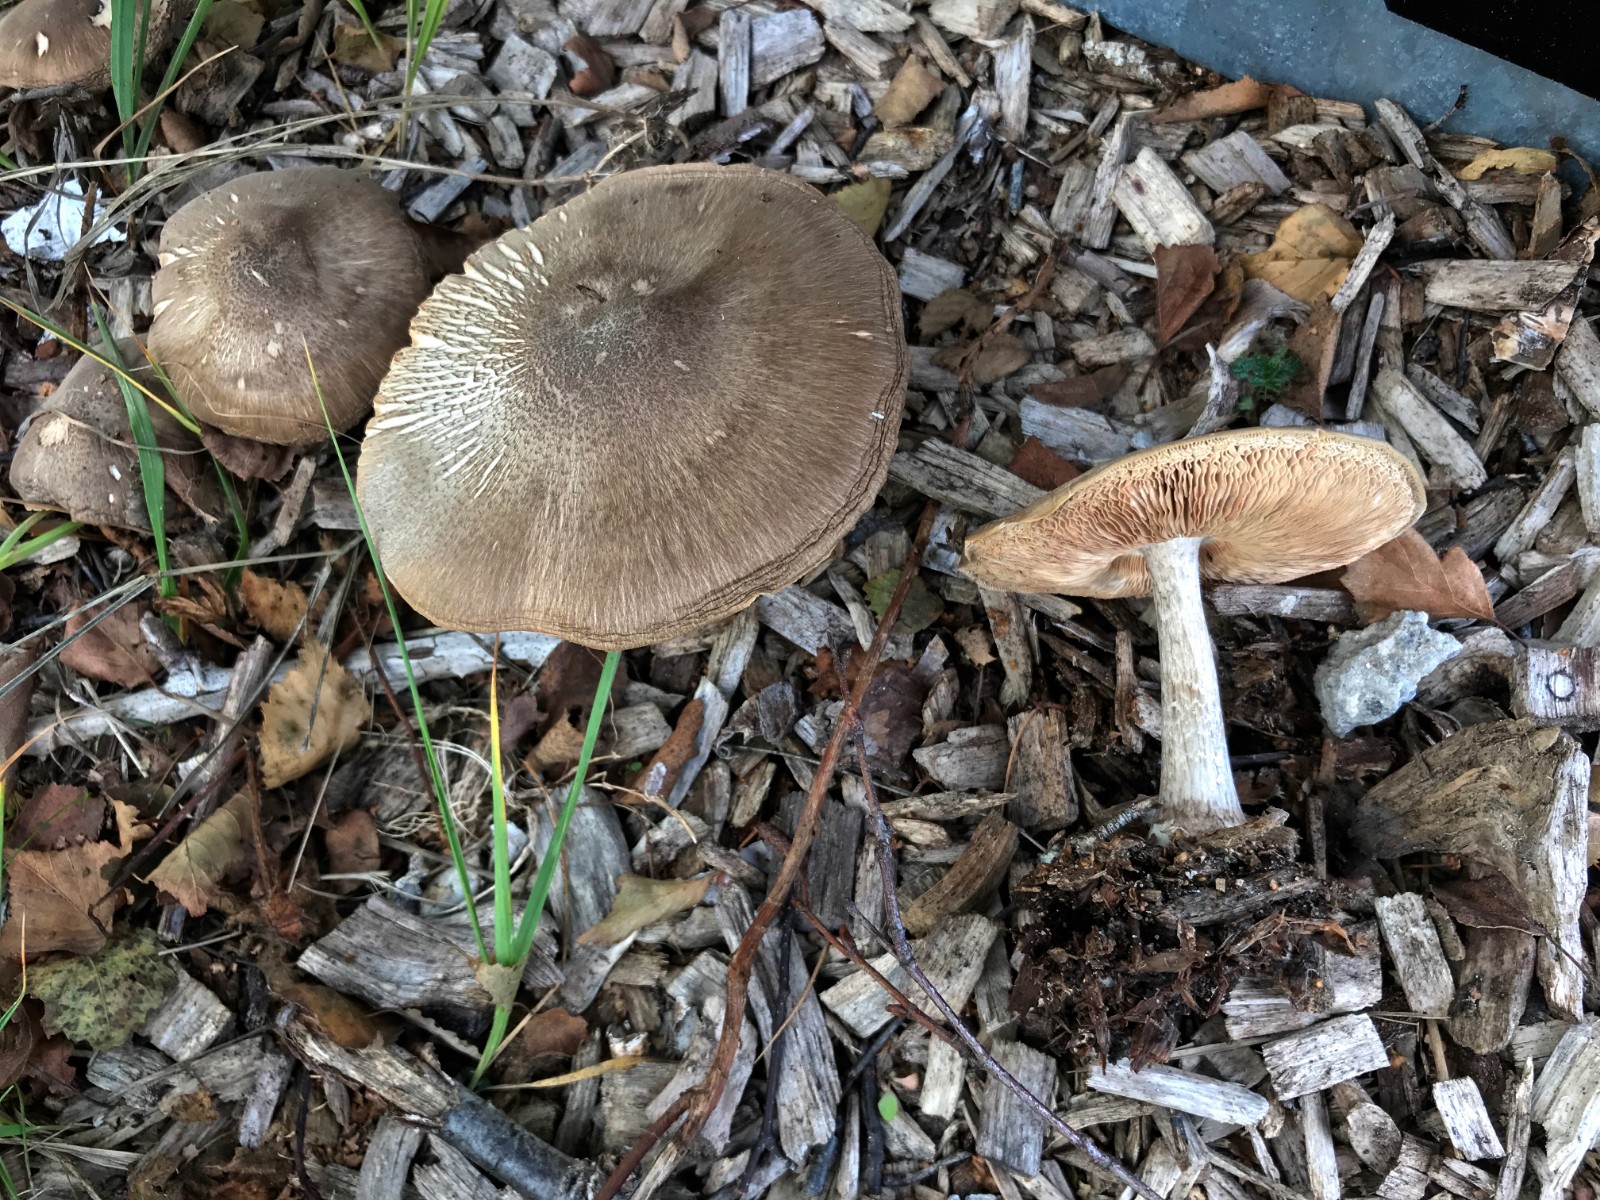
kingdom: Fungi
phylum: Basidiomycota
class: Agaricomycetes
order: Agaricales
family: Pluteaceae
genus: Pluteus
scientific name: Pluteus cervinus
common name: sodfarvet skærmhat
